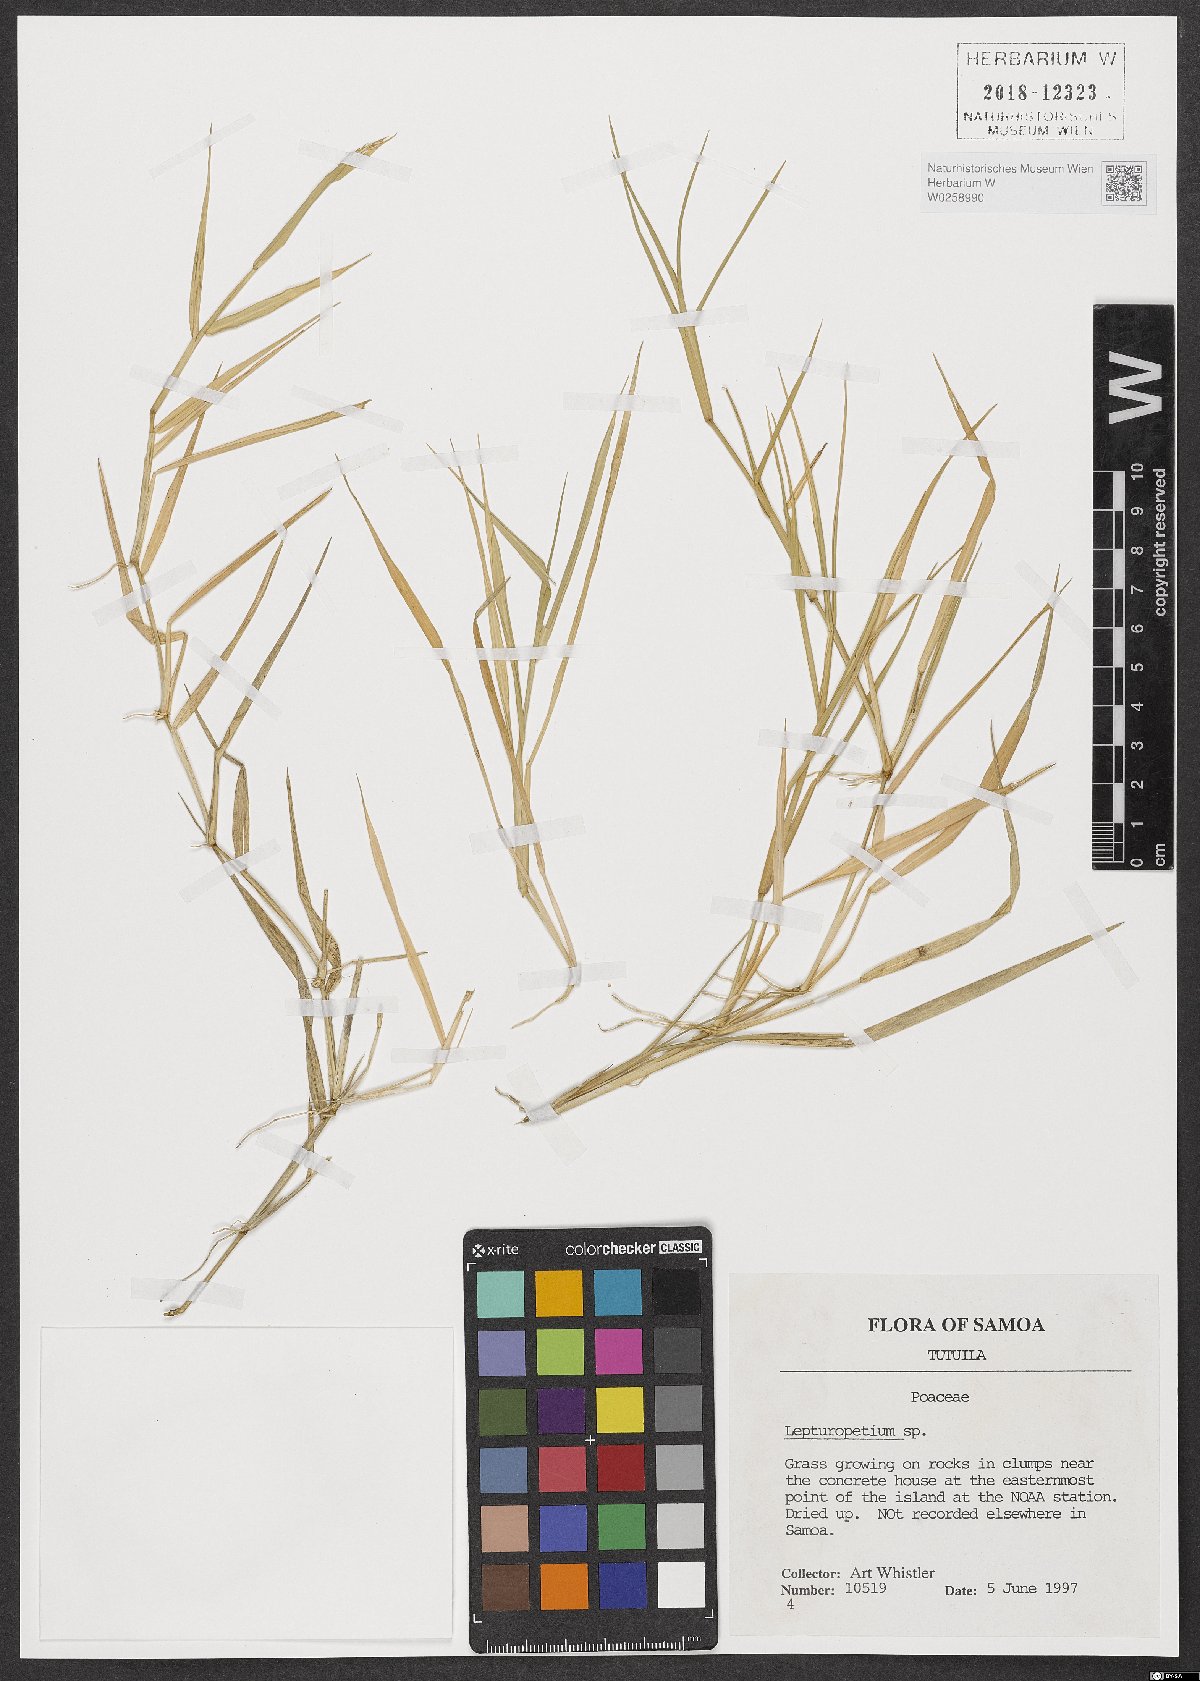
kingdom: Plantae
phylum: Tracheophyta
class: Liliopsida
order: Poales
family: Poaceae
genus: Lepturopetium
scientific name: Lepturopetium
